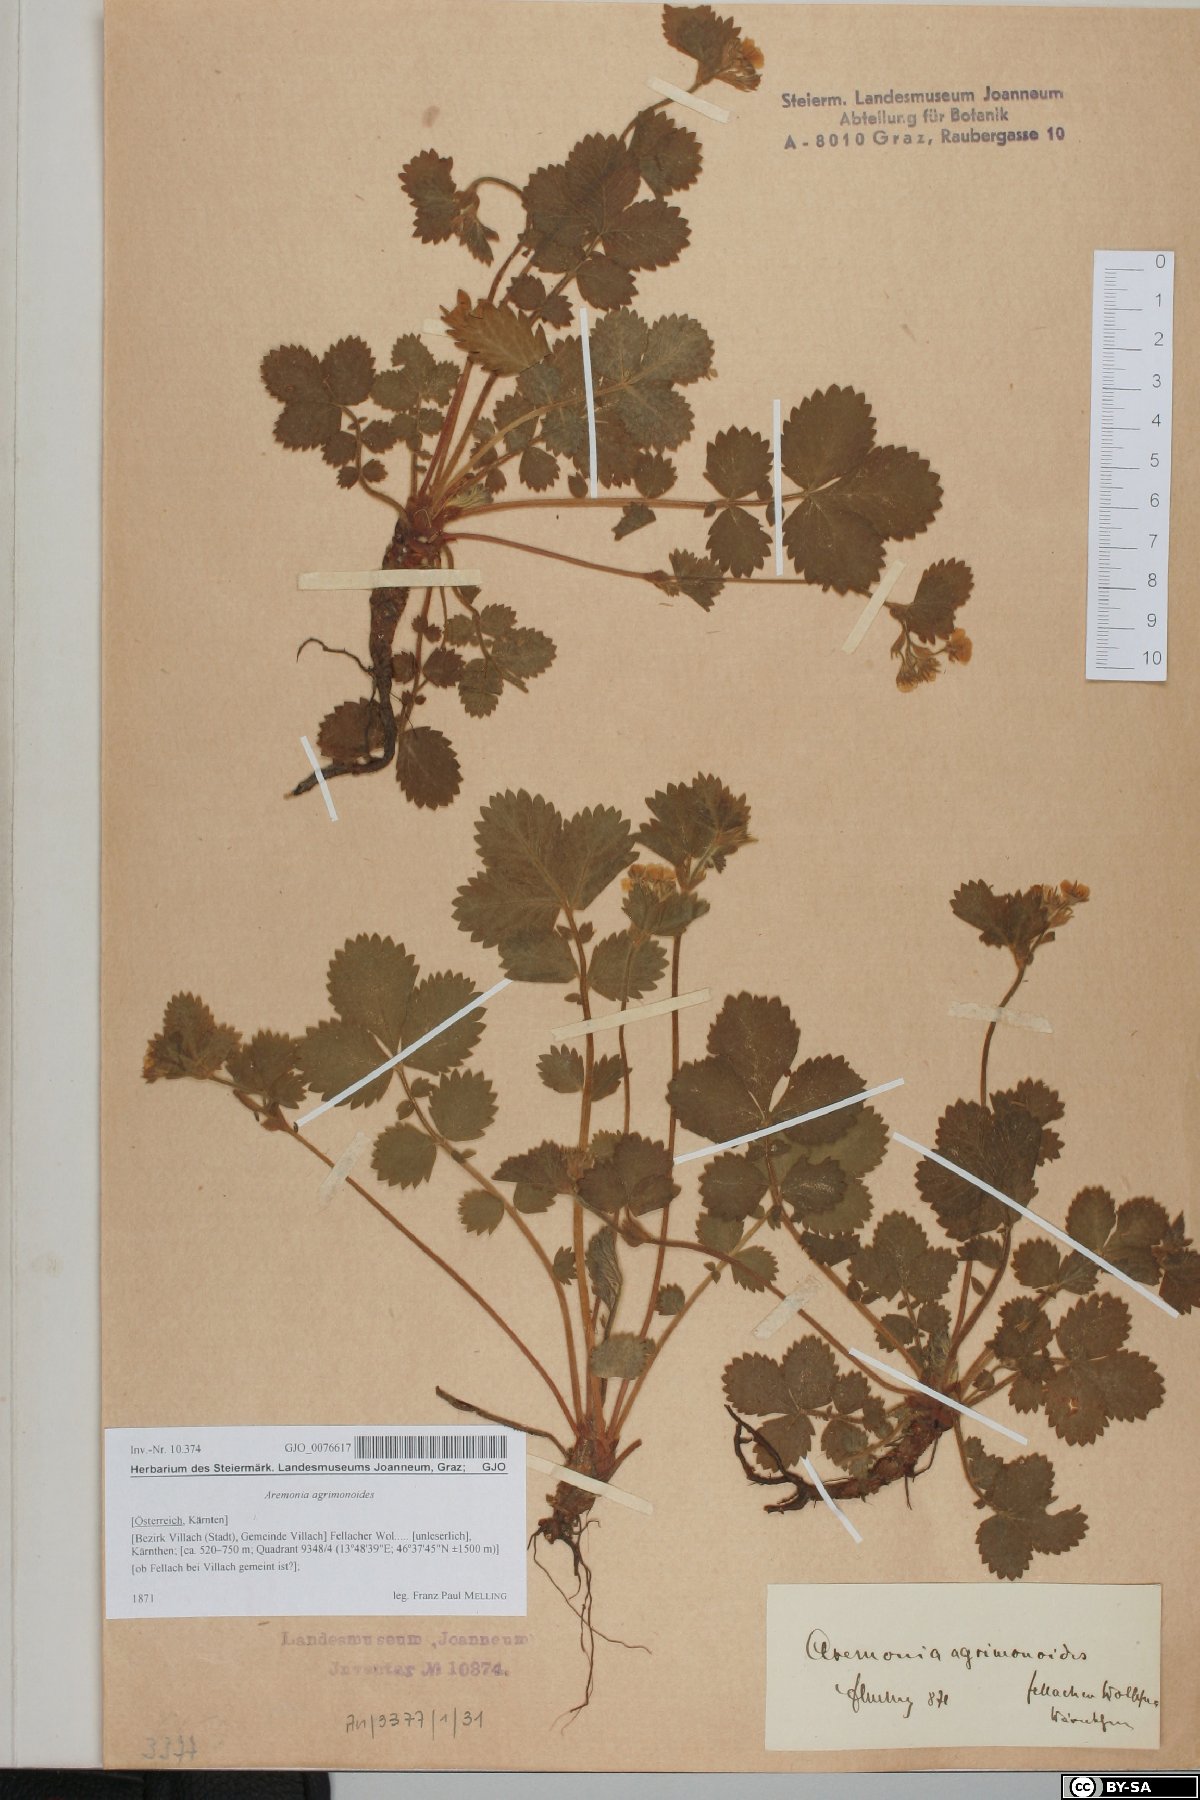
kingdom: Plantae
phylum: Tracheophyta
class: Magnoliopsida
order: Rosales
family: Rosaceae
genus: Aremonia
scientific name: Aremonia agrimonoides
